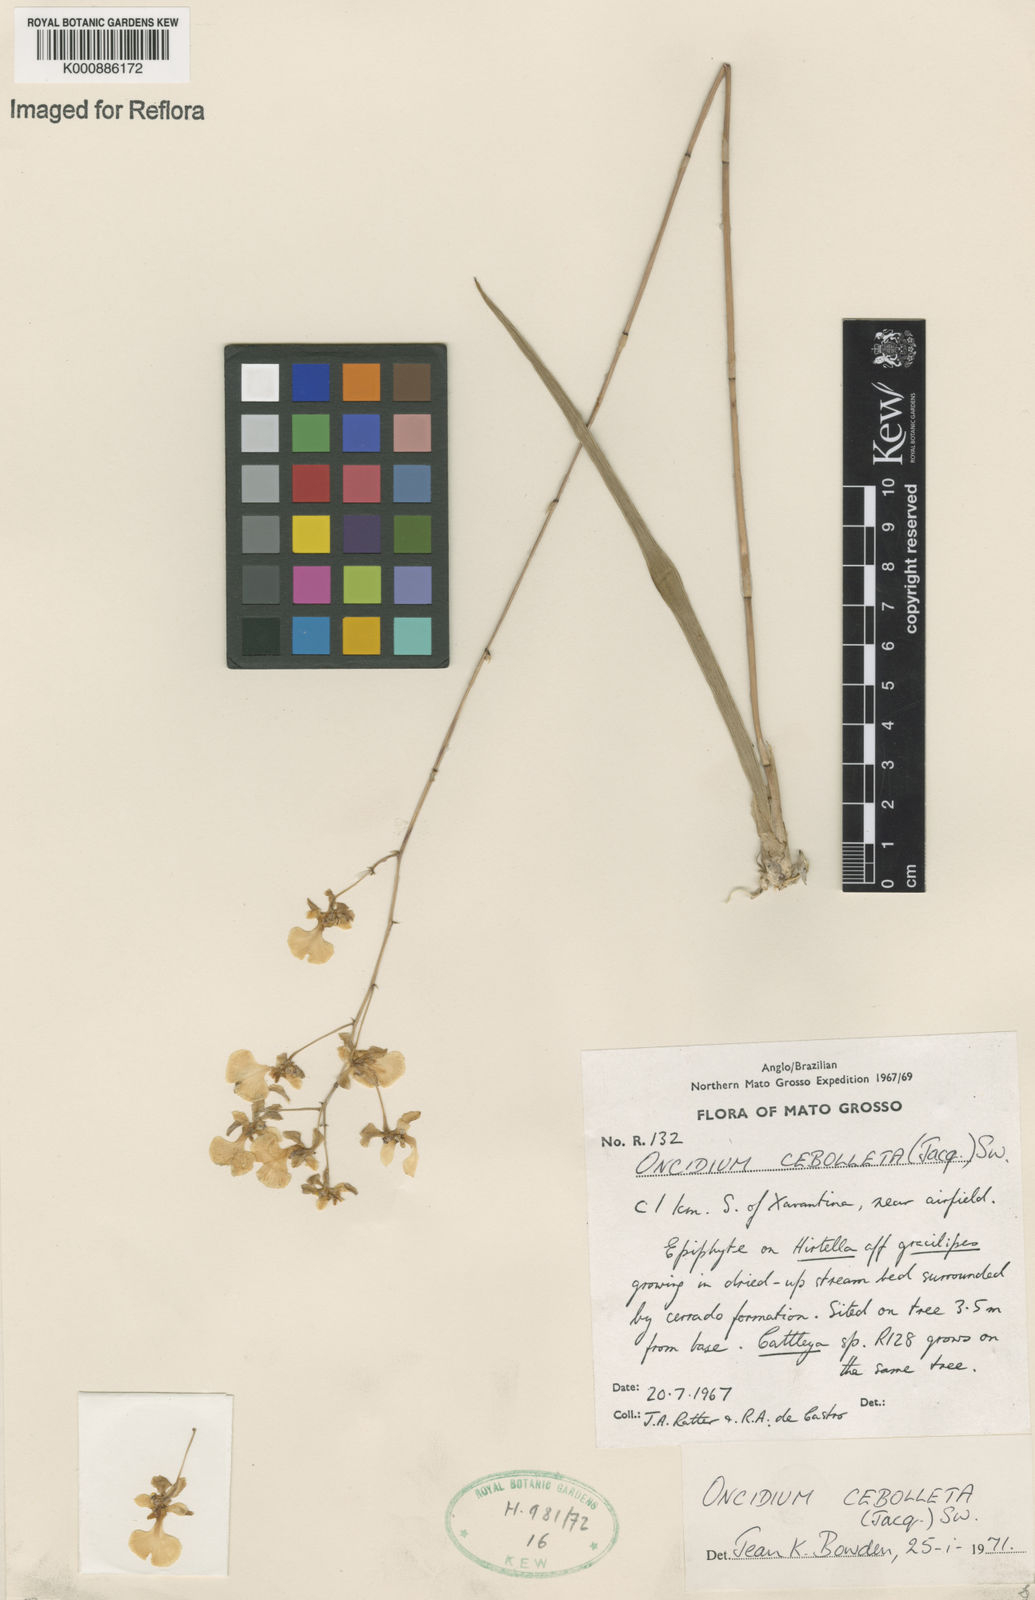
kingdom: Plantae
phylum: Tracheophyta
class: Liliopsida
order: Asparagales
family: Orchidaceae
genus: Trichocentrum
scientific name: Trichocentrum cebolleta
